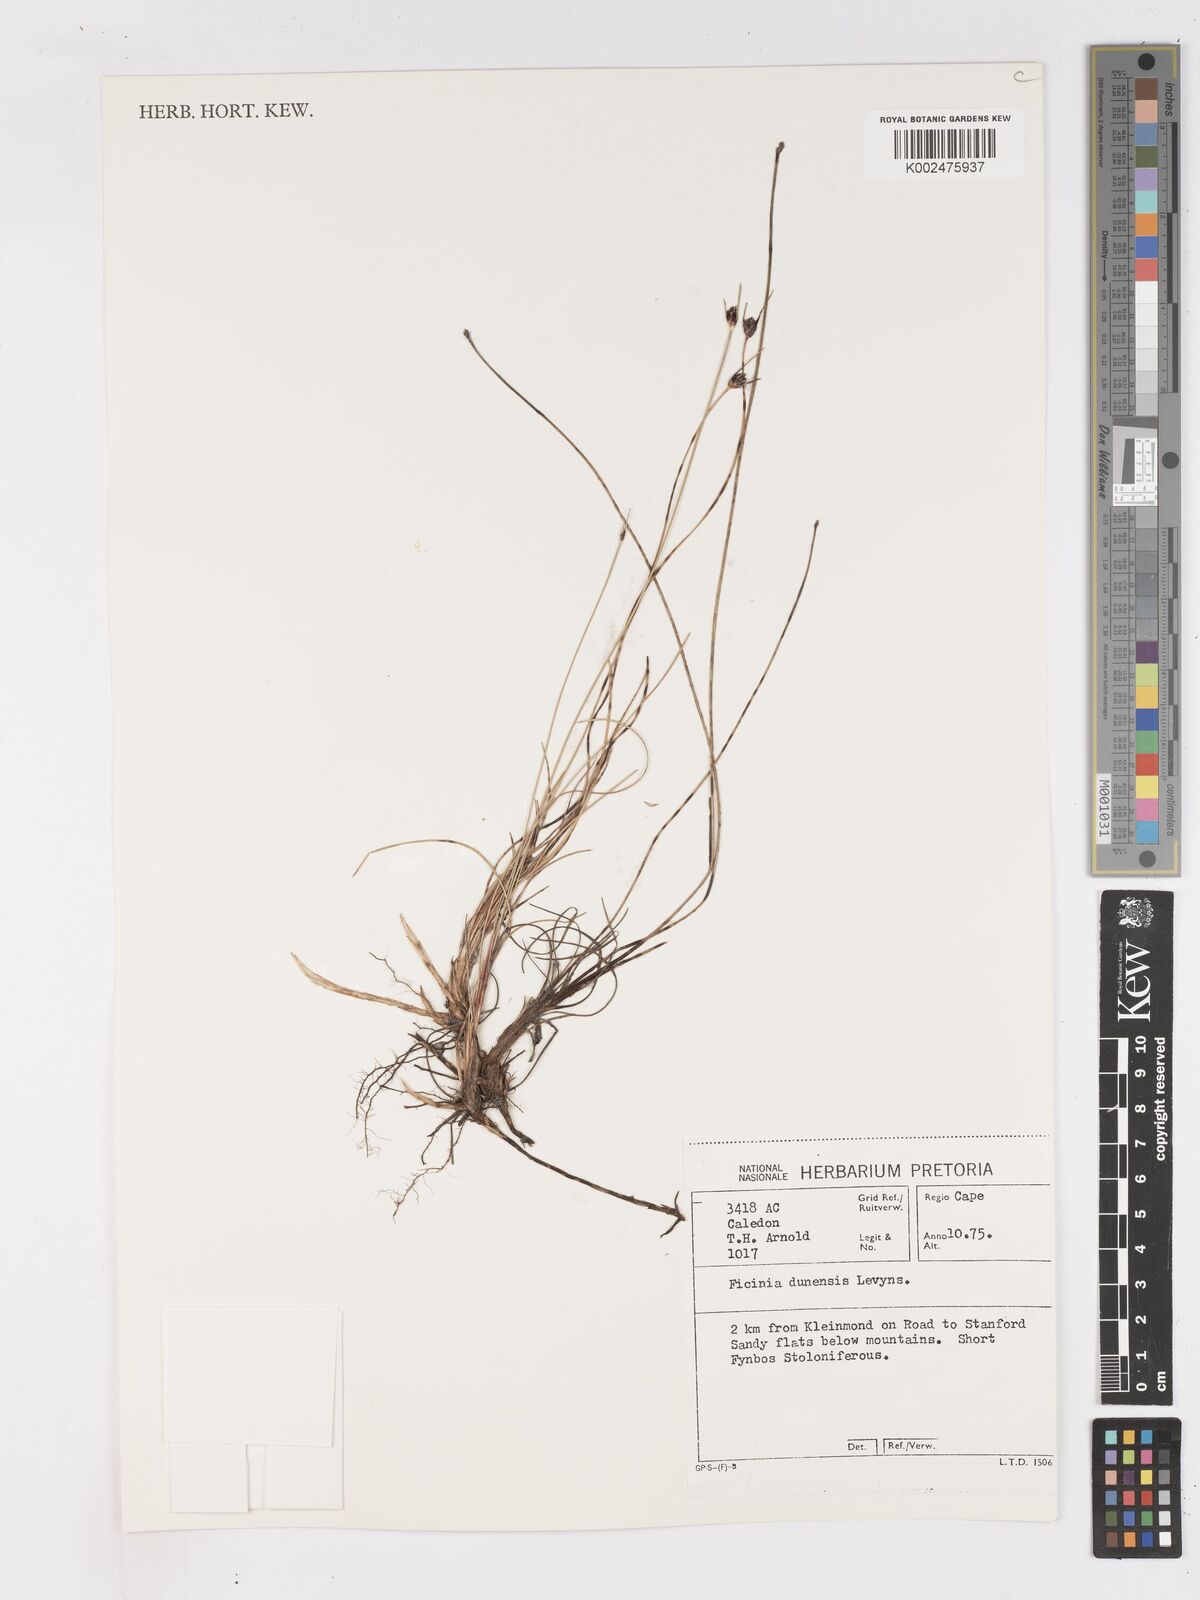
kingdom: Plantae
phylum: Tracheophyta
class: Liliopsida
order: Poales
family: Cyperaceae
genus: Ficinia
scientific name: Ficinia dunensis
